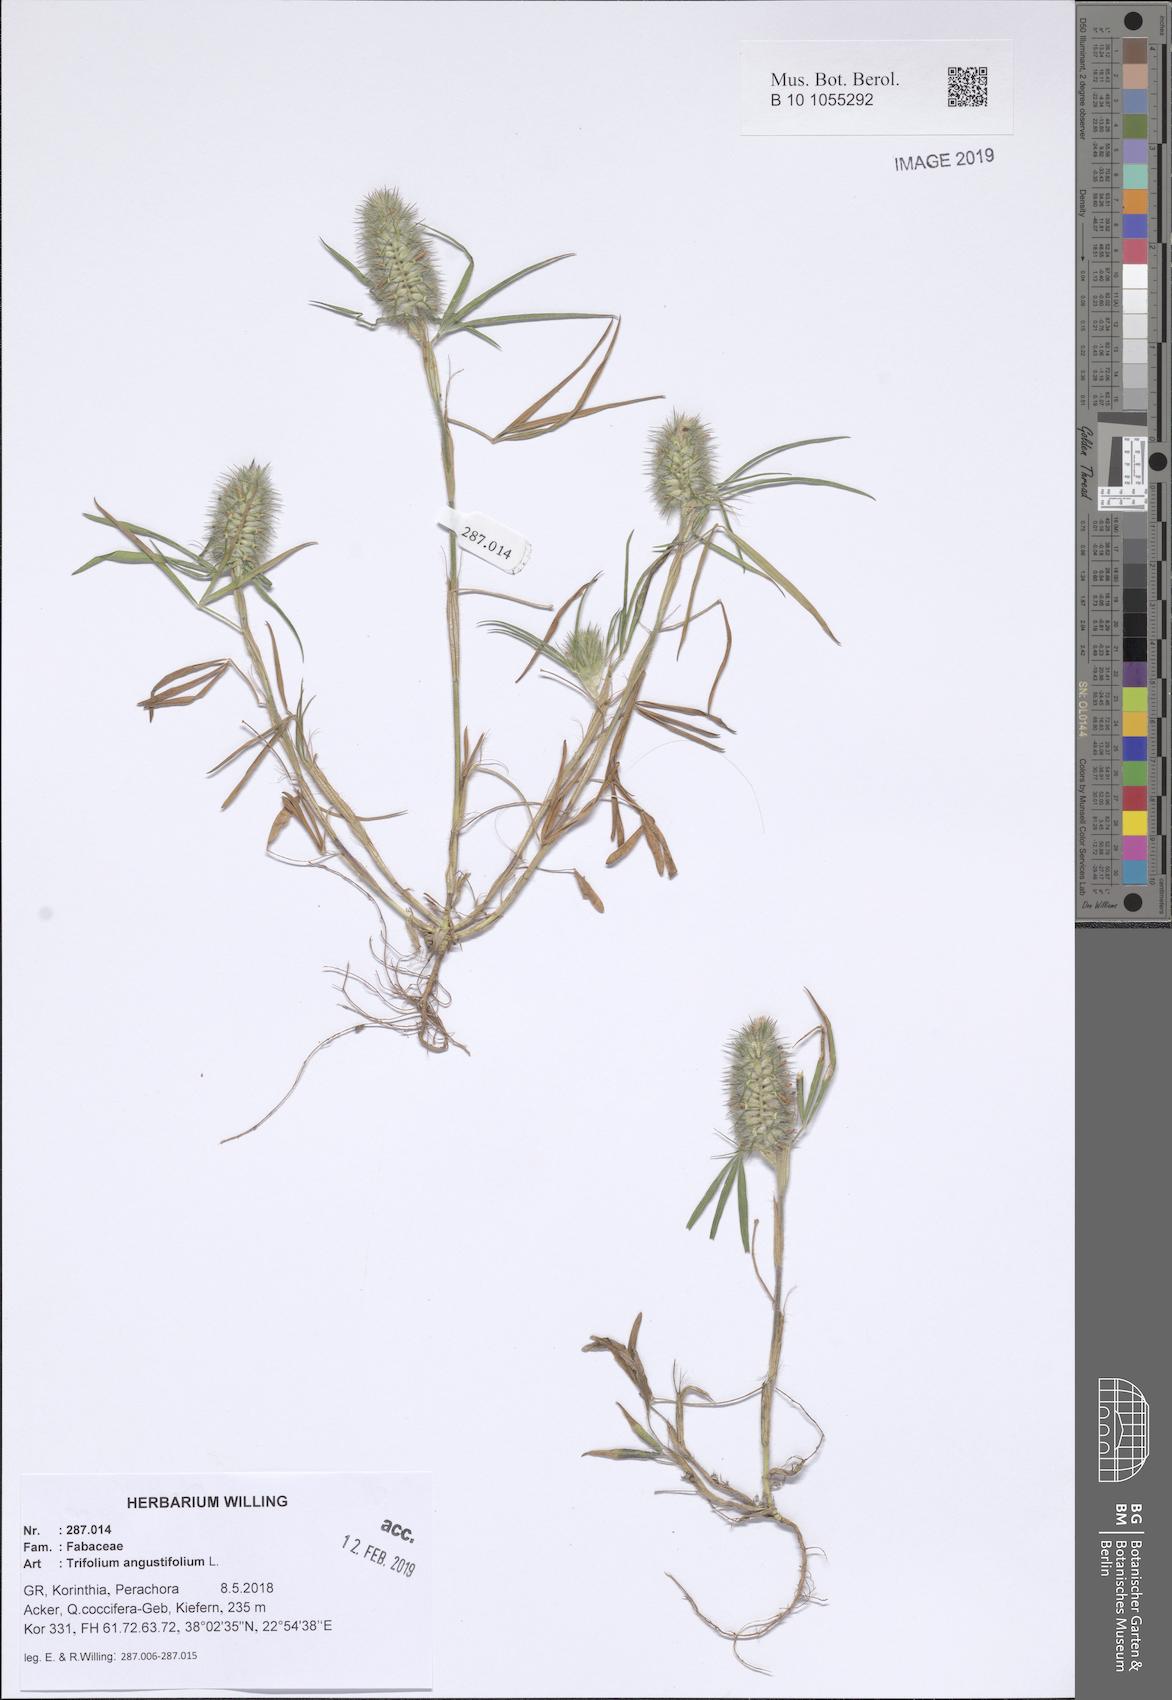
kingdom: Plantae
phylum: Tracheophyta
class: Magnoliopsida
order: Fabales
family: Fabaceae
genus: Trifolium
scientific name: Trifolium angustifolium
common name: Narrow clover
